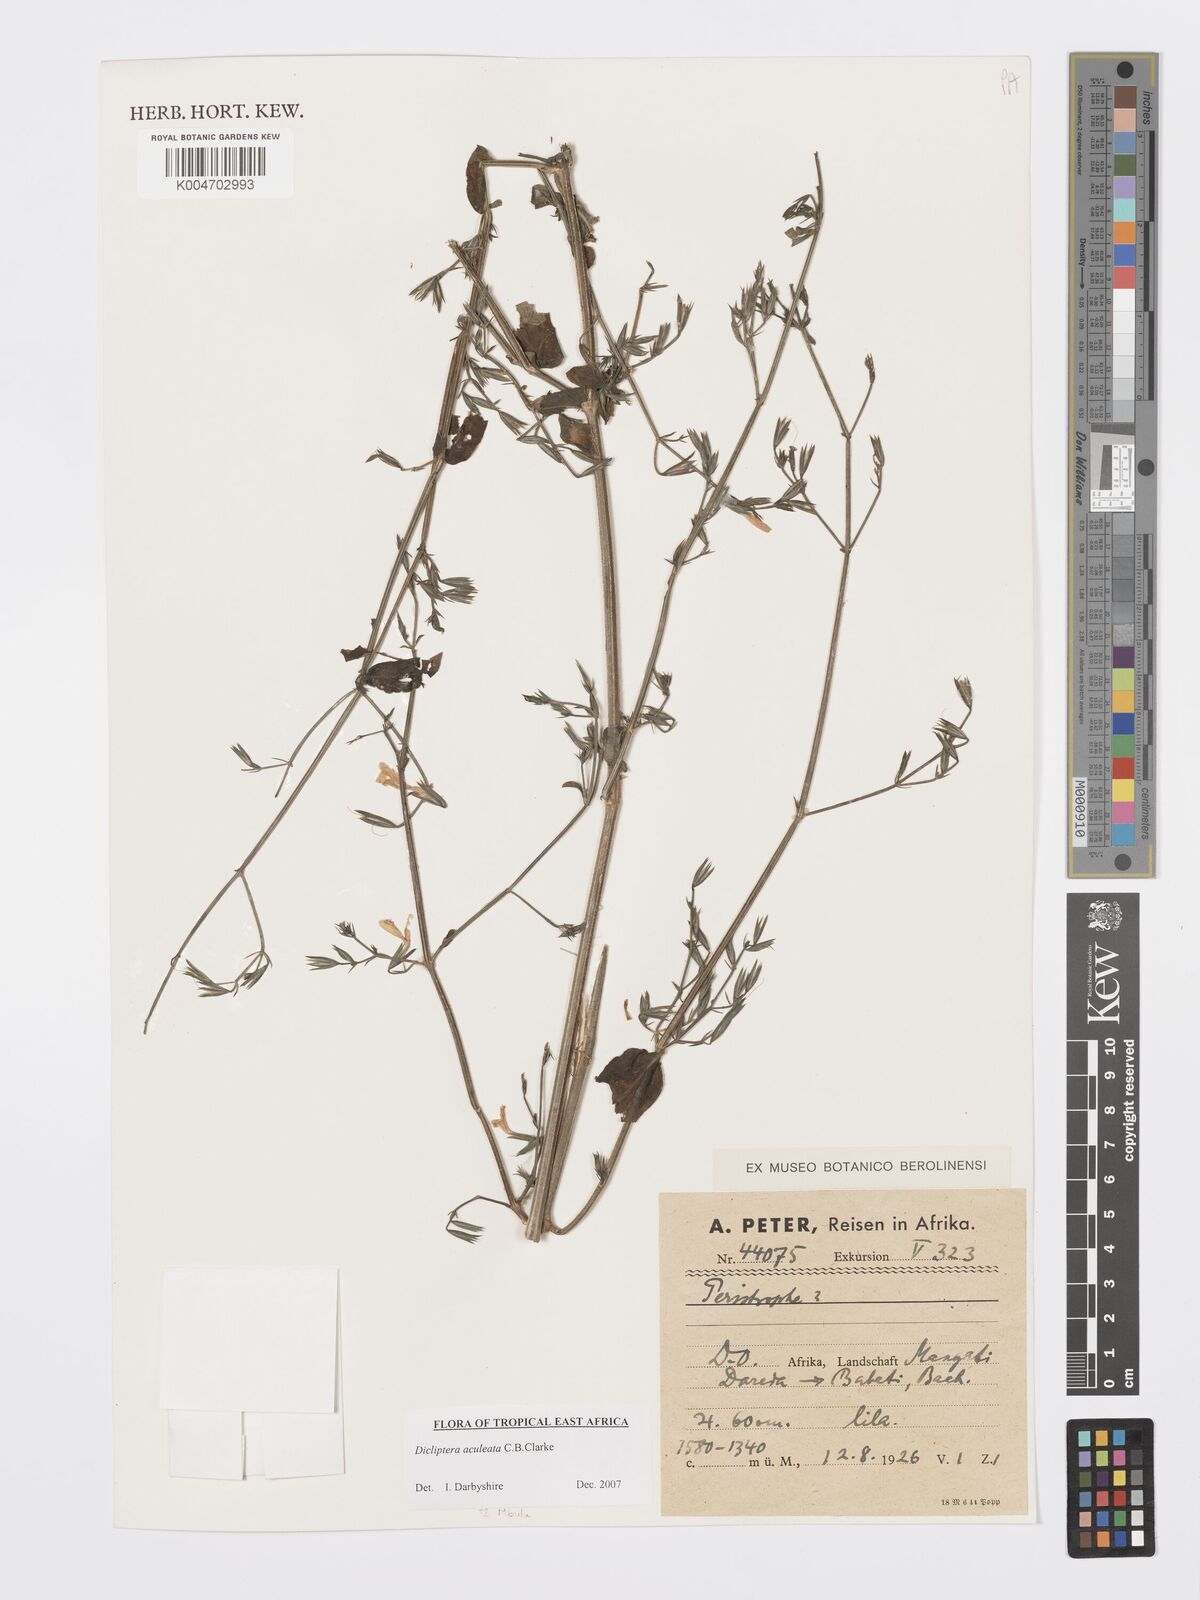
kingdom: Plantae
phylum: Tracheophyta
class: Magnoliopsida
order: Lamiales
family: Acanthaceae
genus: Dicliptera
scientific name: Dicliptera hensii
